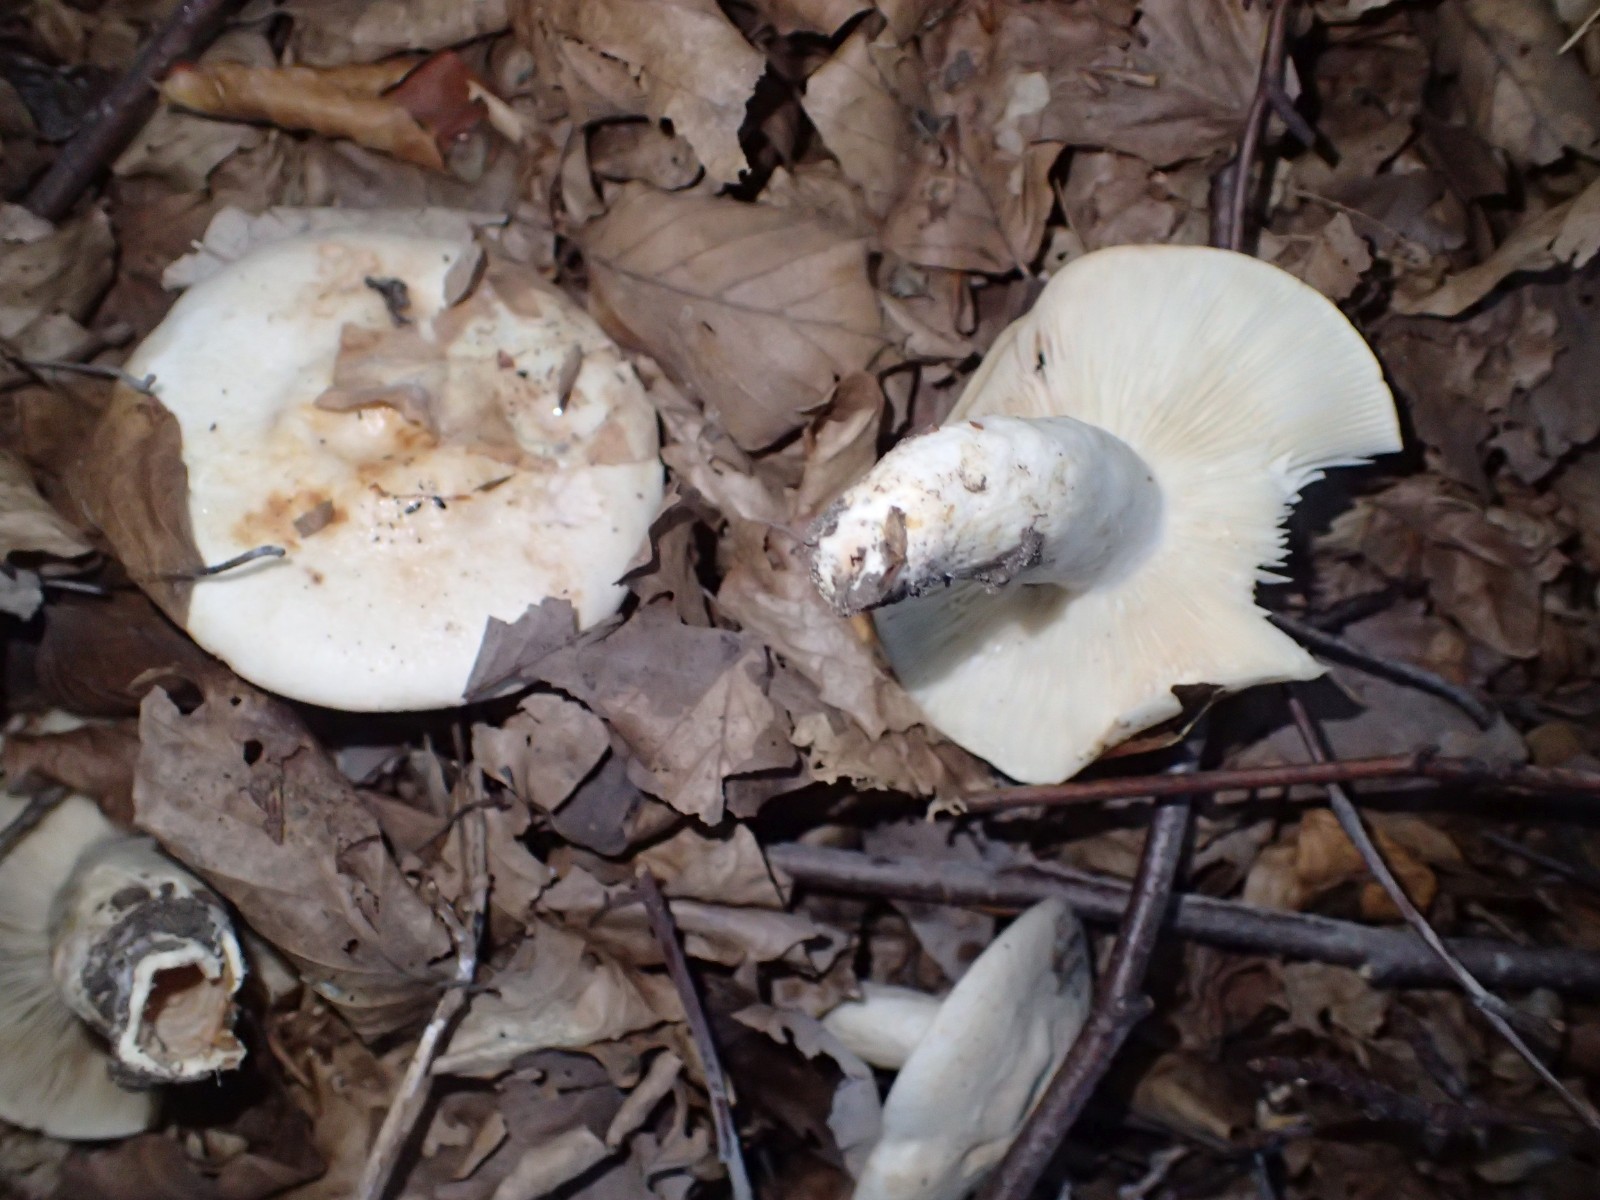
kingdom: Fungi
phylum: Basidiomycota
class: Agaricomycetes
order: Russulales
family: Russulaceae
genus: Lactarius
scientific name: Lactarius pallidus
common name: bleg mælkehat
